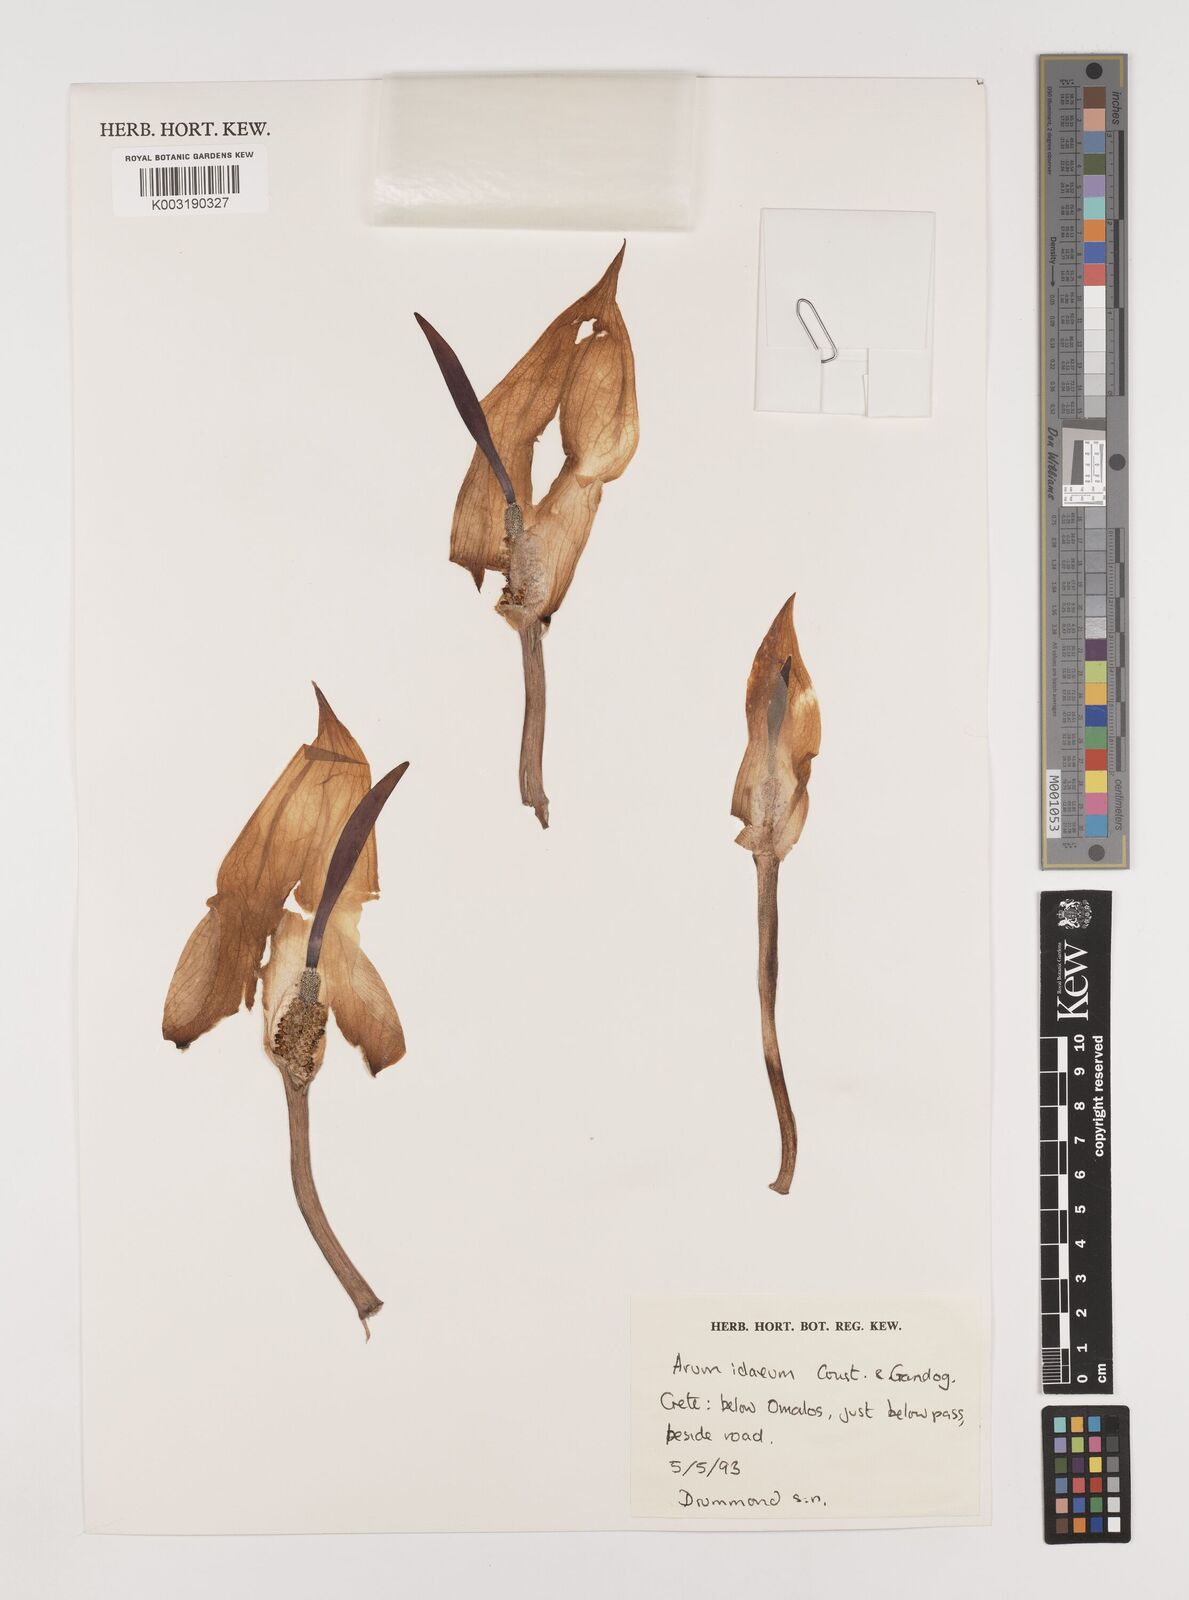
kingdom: Plantae
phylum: Tracheophyta
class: Liliopsida
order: Alismatales
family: Araceae
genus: Arum
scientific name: Arum idaeum
